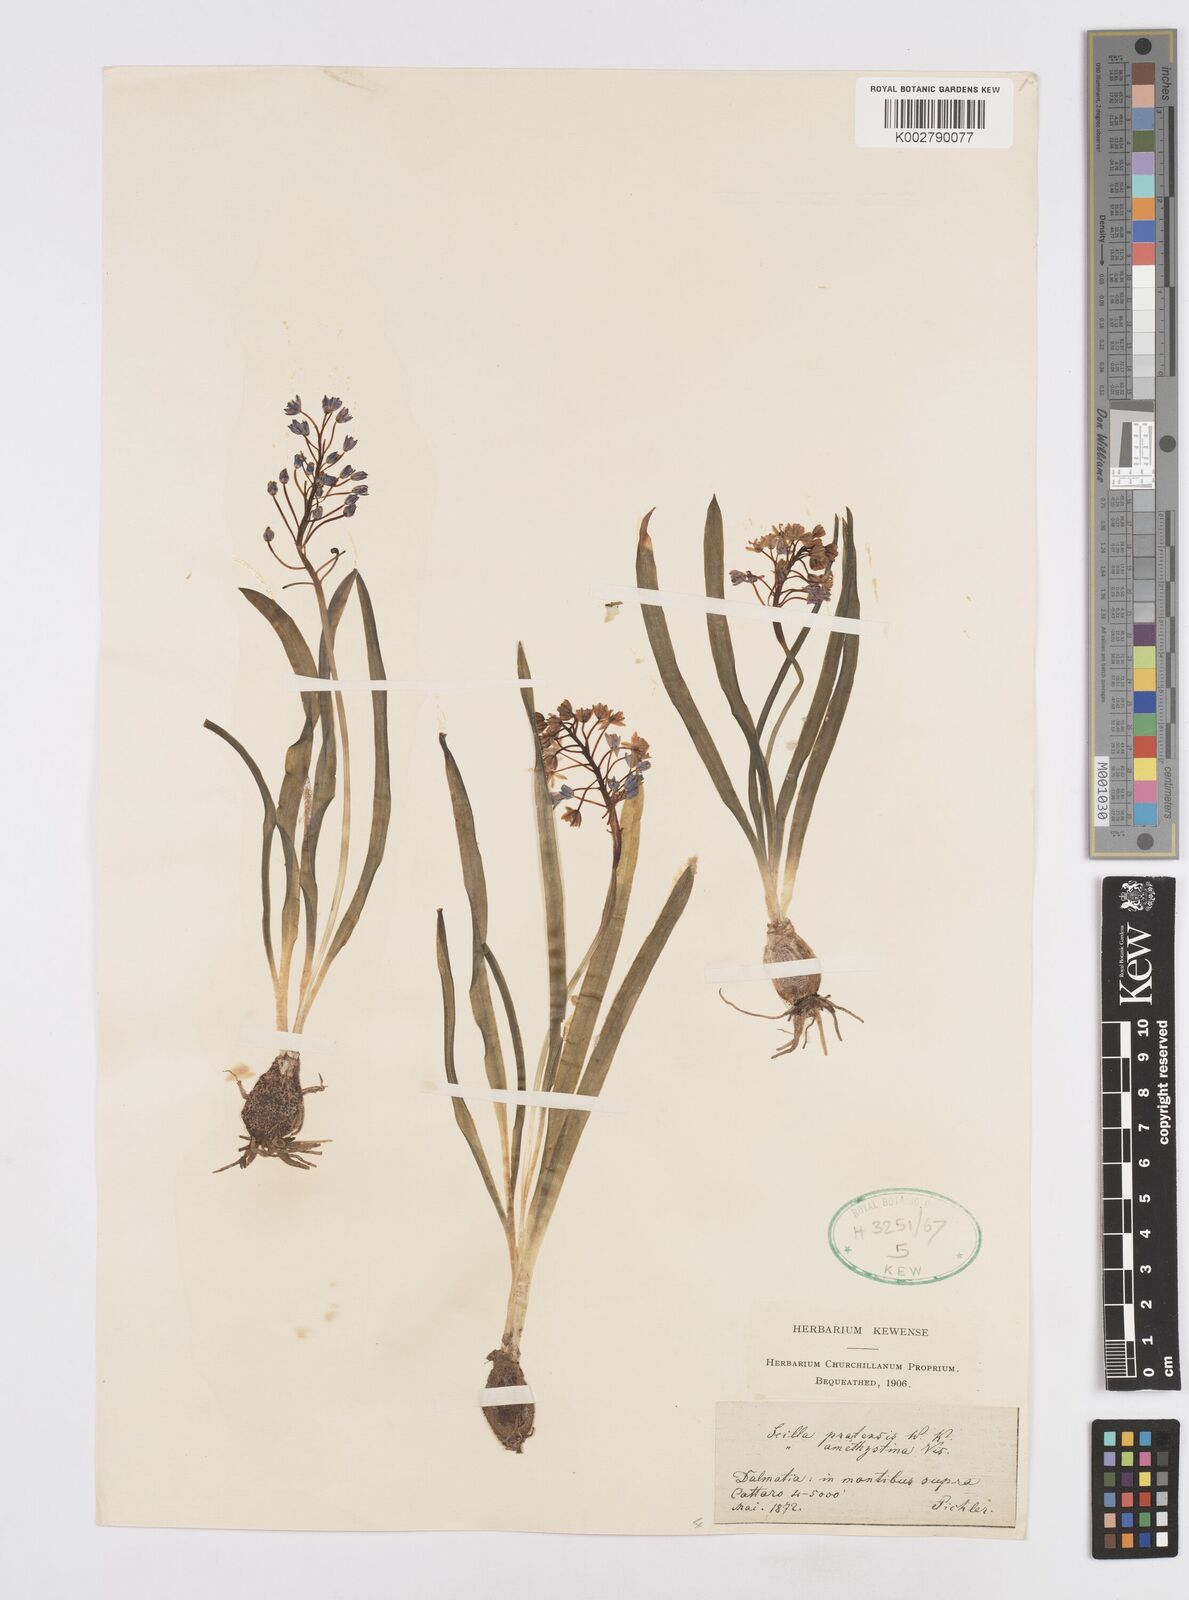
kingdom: Plantae
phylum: Tracheophyta
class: Liliopsida
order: Asparagales
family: Asparagaceae
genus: Scilla
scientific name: Scilla litardierei
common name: Amethyst meadow squill
